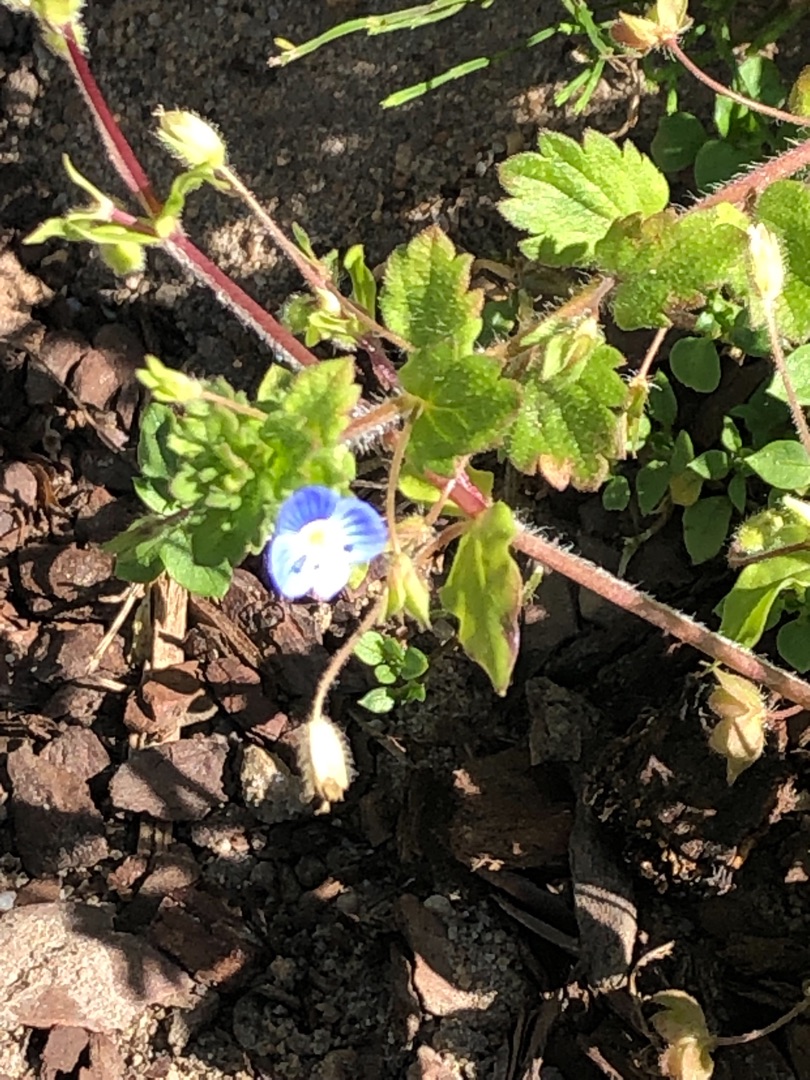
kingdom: Plantae
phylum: Tracheophyta
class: Magnoliopsida
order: Lamiales
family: Plantaginaceae
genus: Veronica
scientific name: Veronica persica
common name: Storkronet ærenpris
